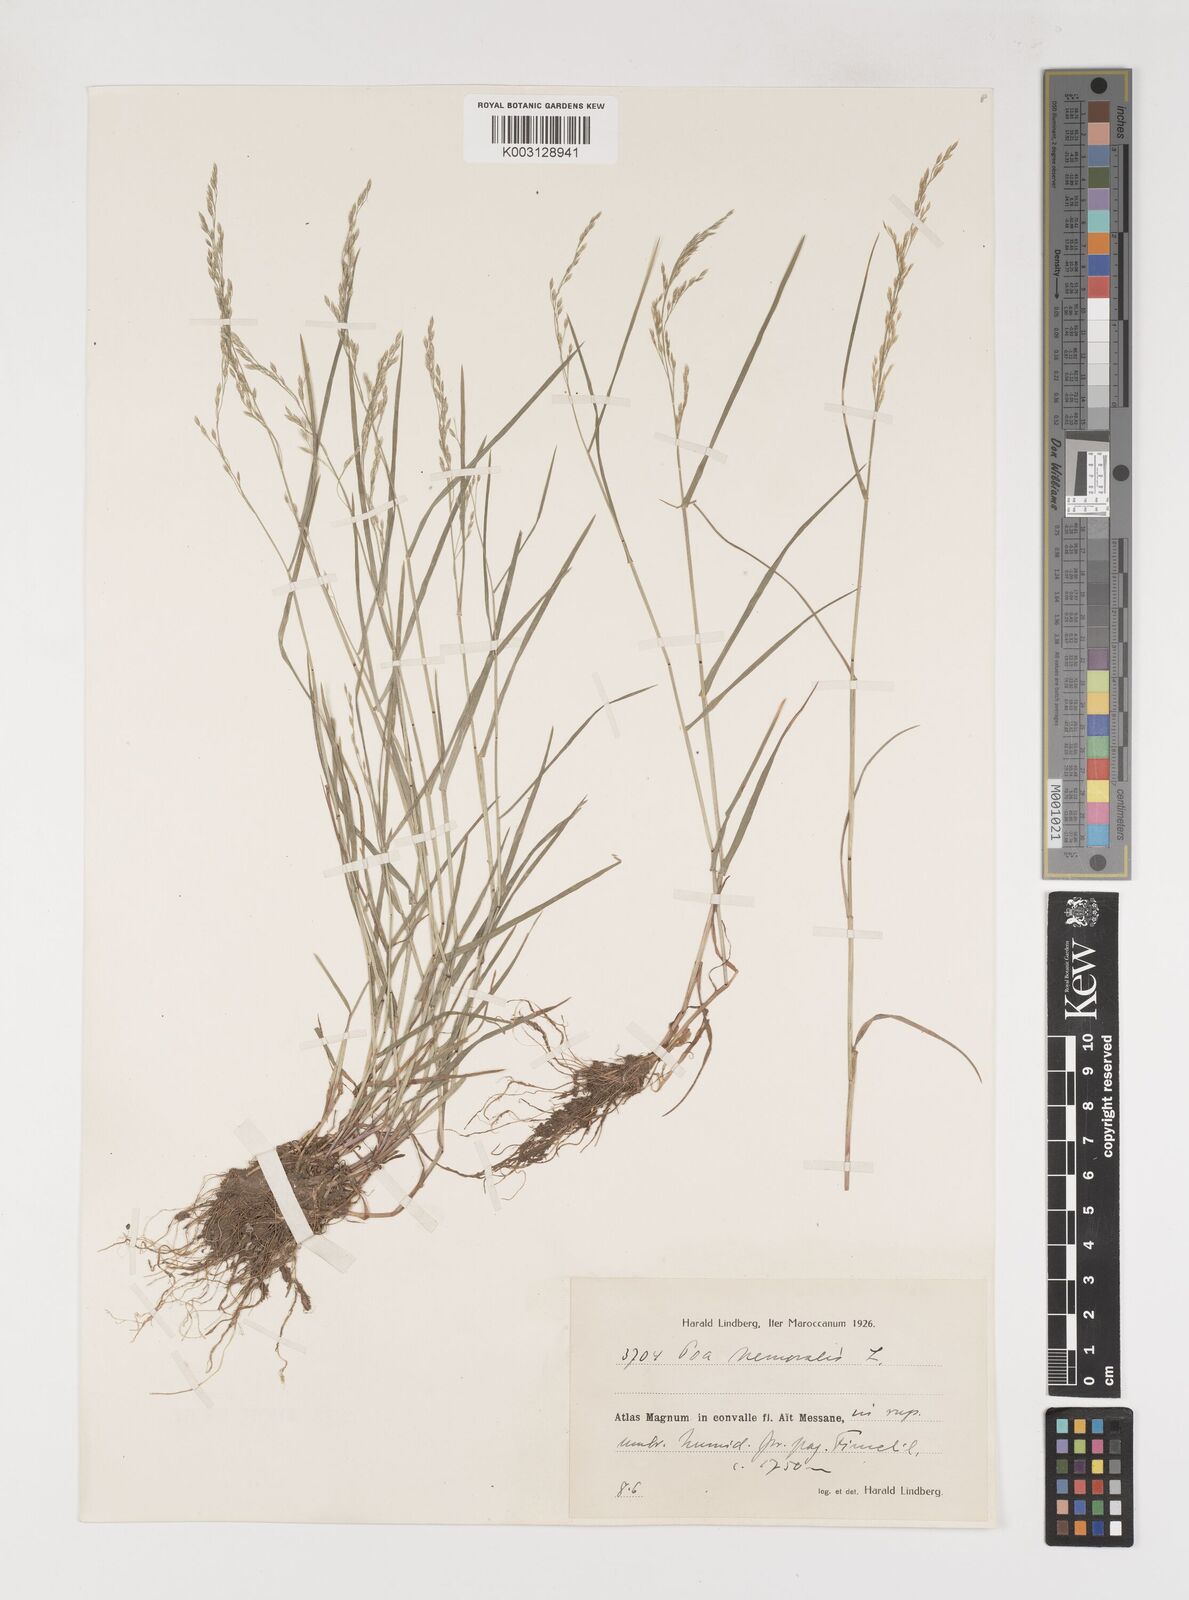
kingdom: Plantae
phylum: Tracheophyta
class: Liliopsida
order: Poales
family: Poaceae
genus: Poa
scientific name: Poa nemoralis
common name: Wood bluegrass
